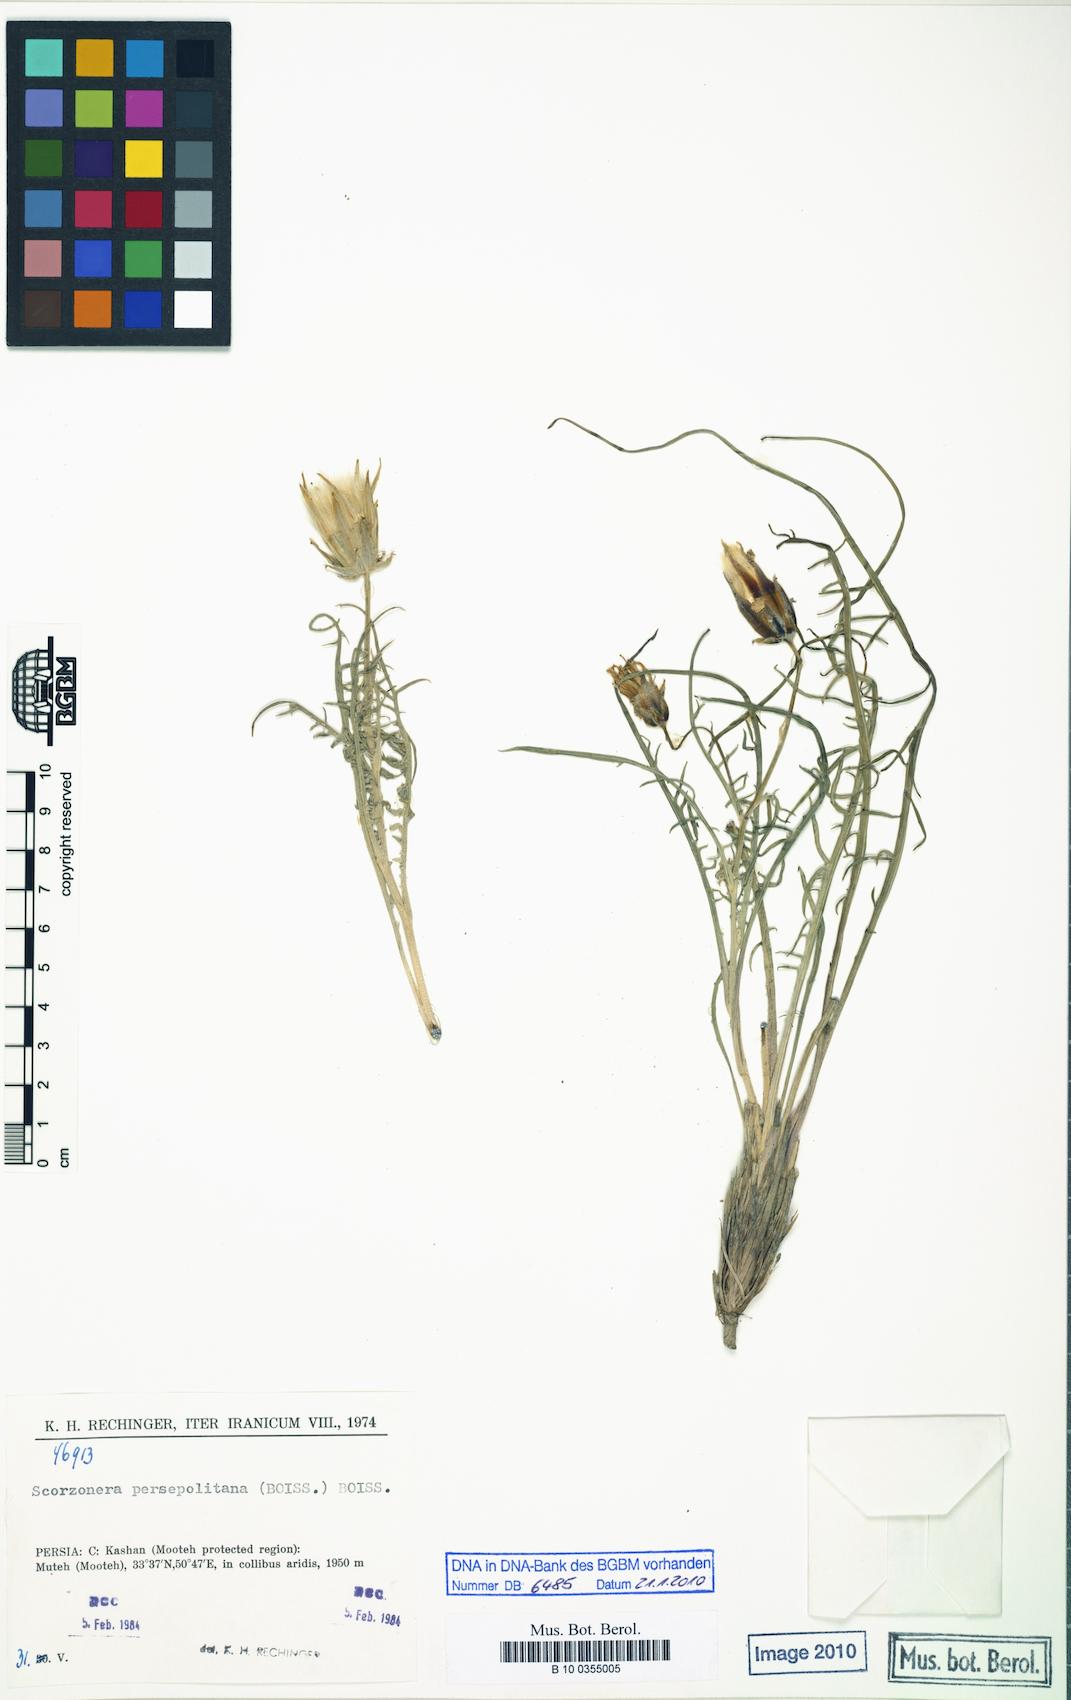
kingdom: Plantae
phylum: Tracheophyta
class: Magnoliopsida
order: Asterales
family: Asteraceae
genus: Scorzonera
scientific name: Scorzonera persepolitana
